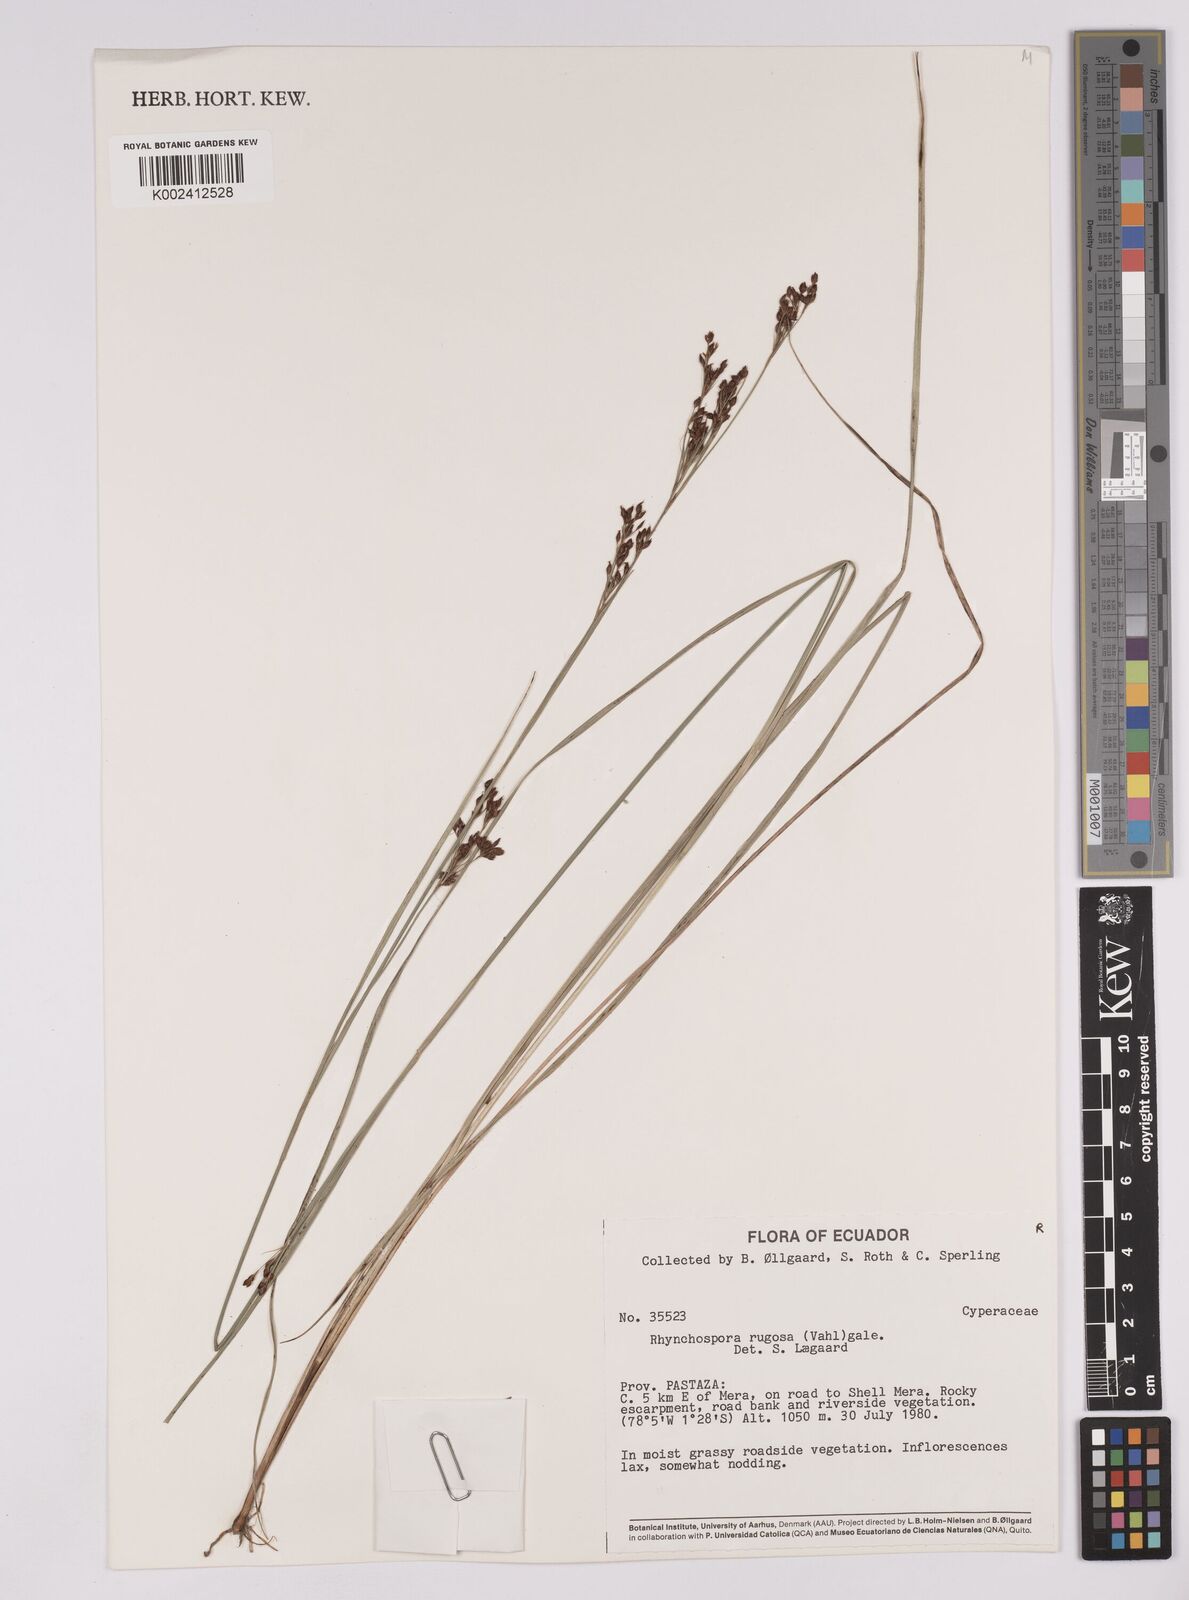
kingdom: Plantae
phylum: Tracheophyta
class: Liliopsida
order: Poales
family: Cyperaceae
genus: Rhynchospora
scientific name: Rhynchospora rugosa
